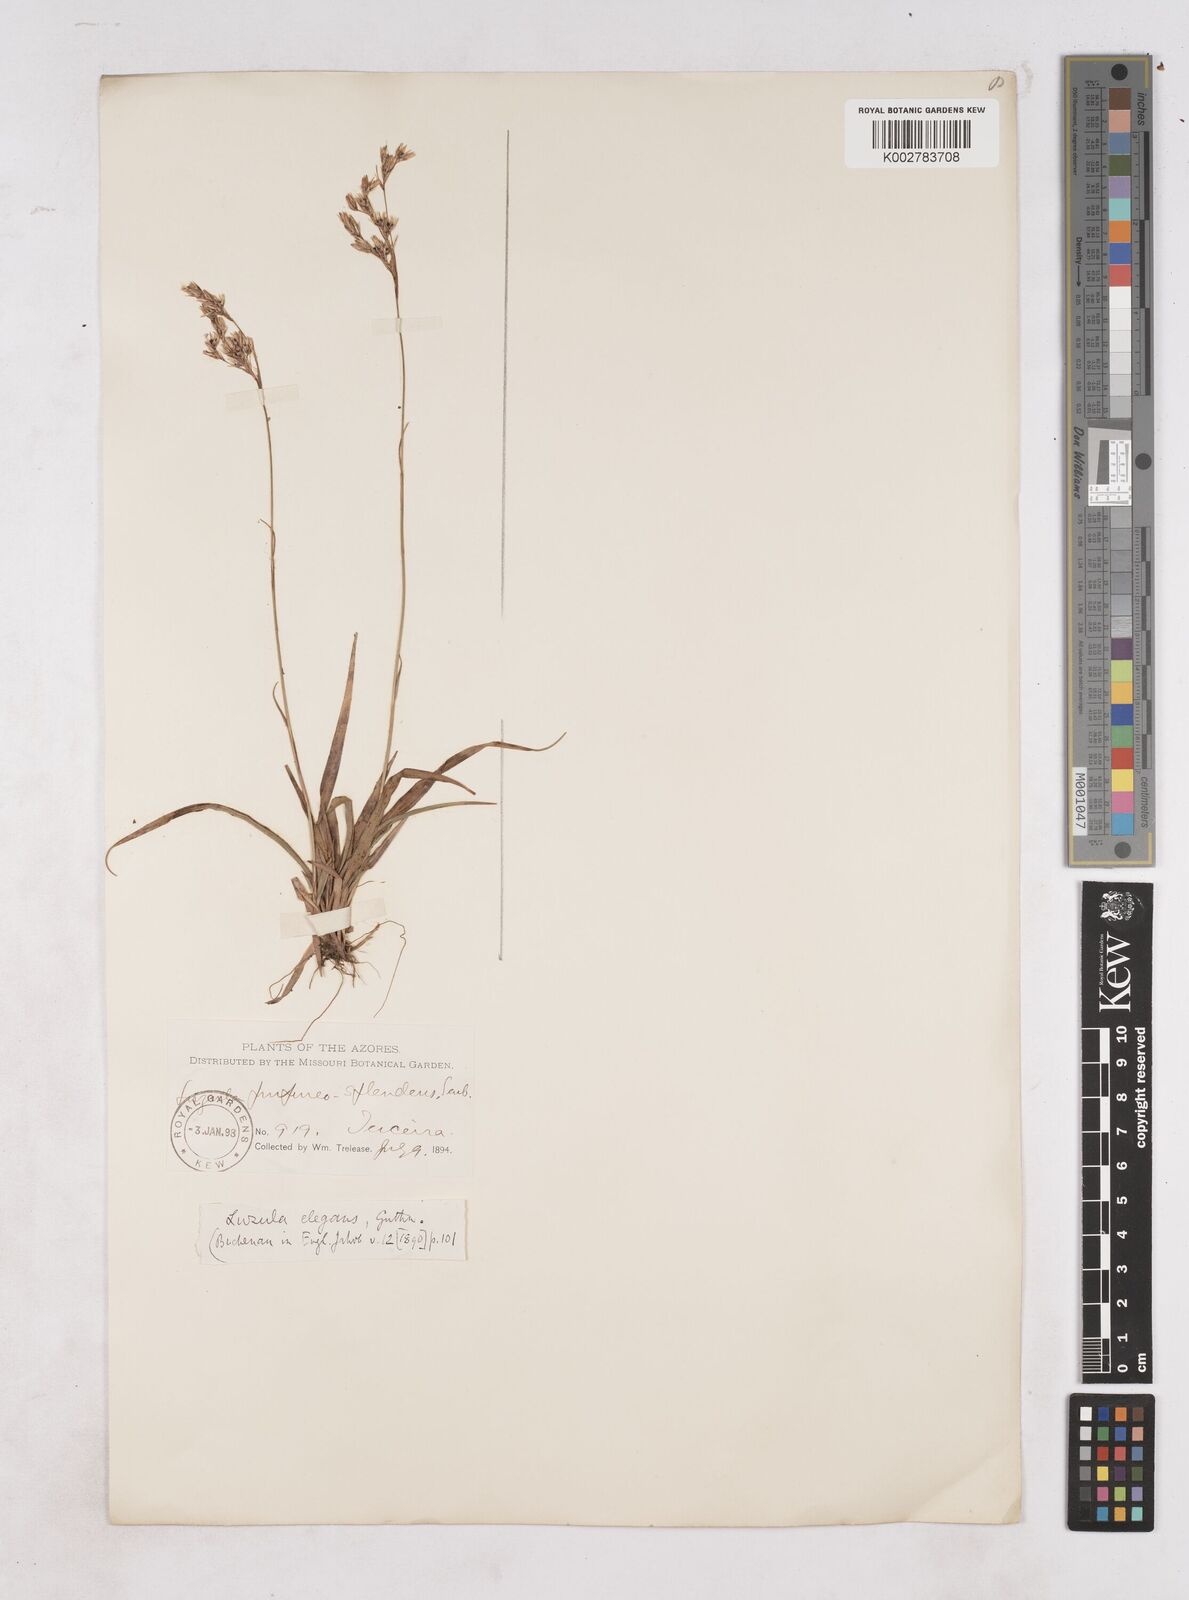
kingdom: Plantae
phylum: Tracheophyta
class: Liliopsida
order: Poales
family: Juncaceae
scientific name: Juncaceae
